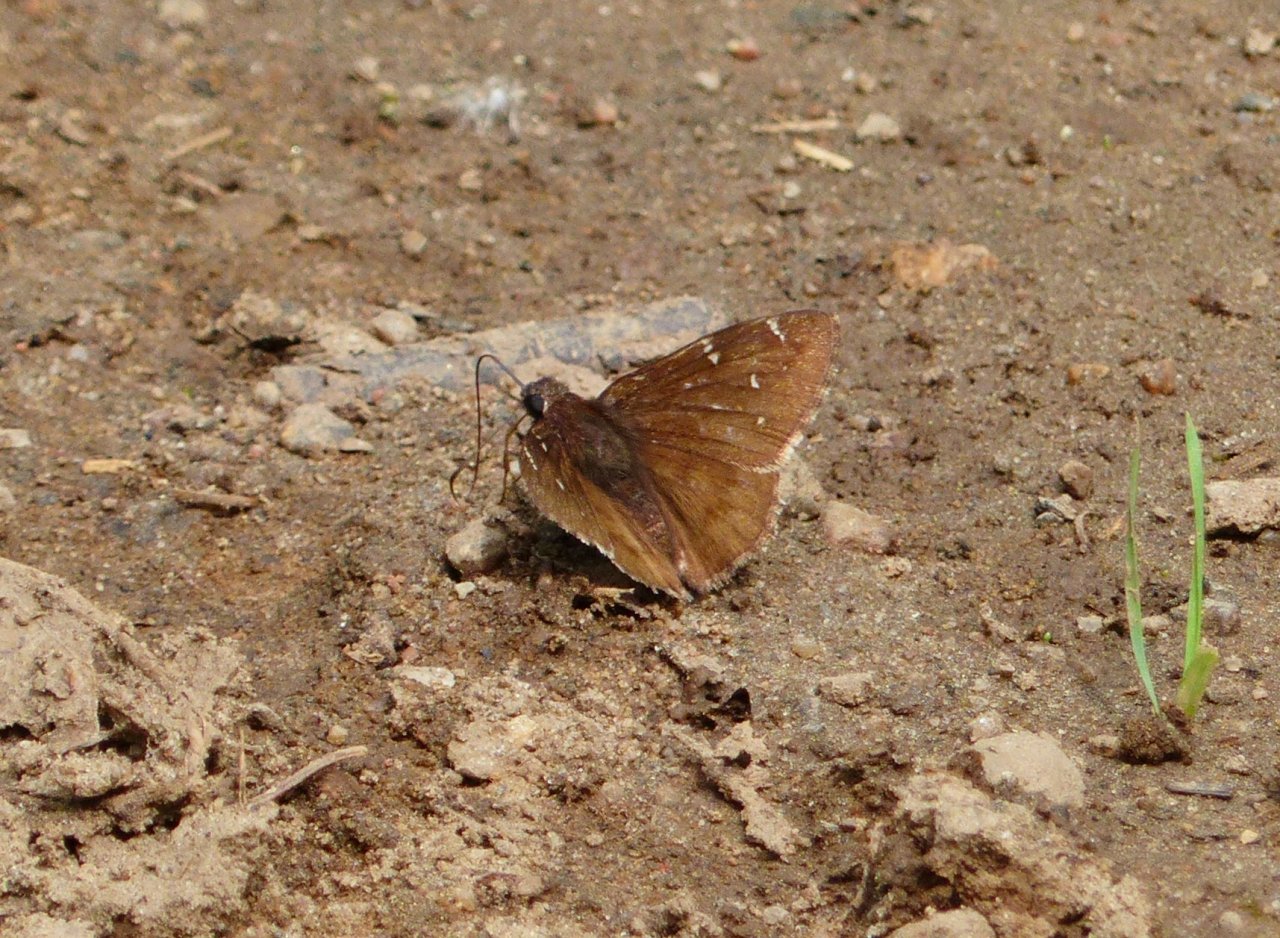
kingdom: Animalia
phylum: Arthropoda
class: Insecta
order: Lepidoptera
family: Hesperiidae
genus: Autochton
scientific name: Autochton
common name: Northern Cloudywing
